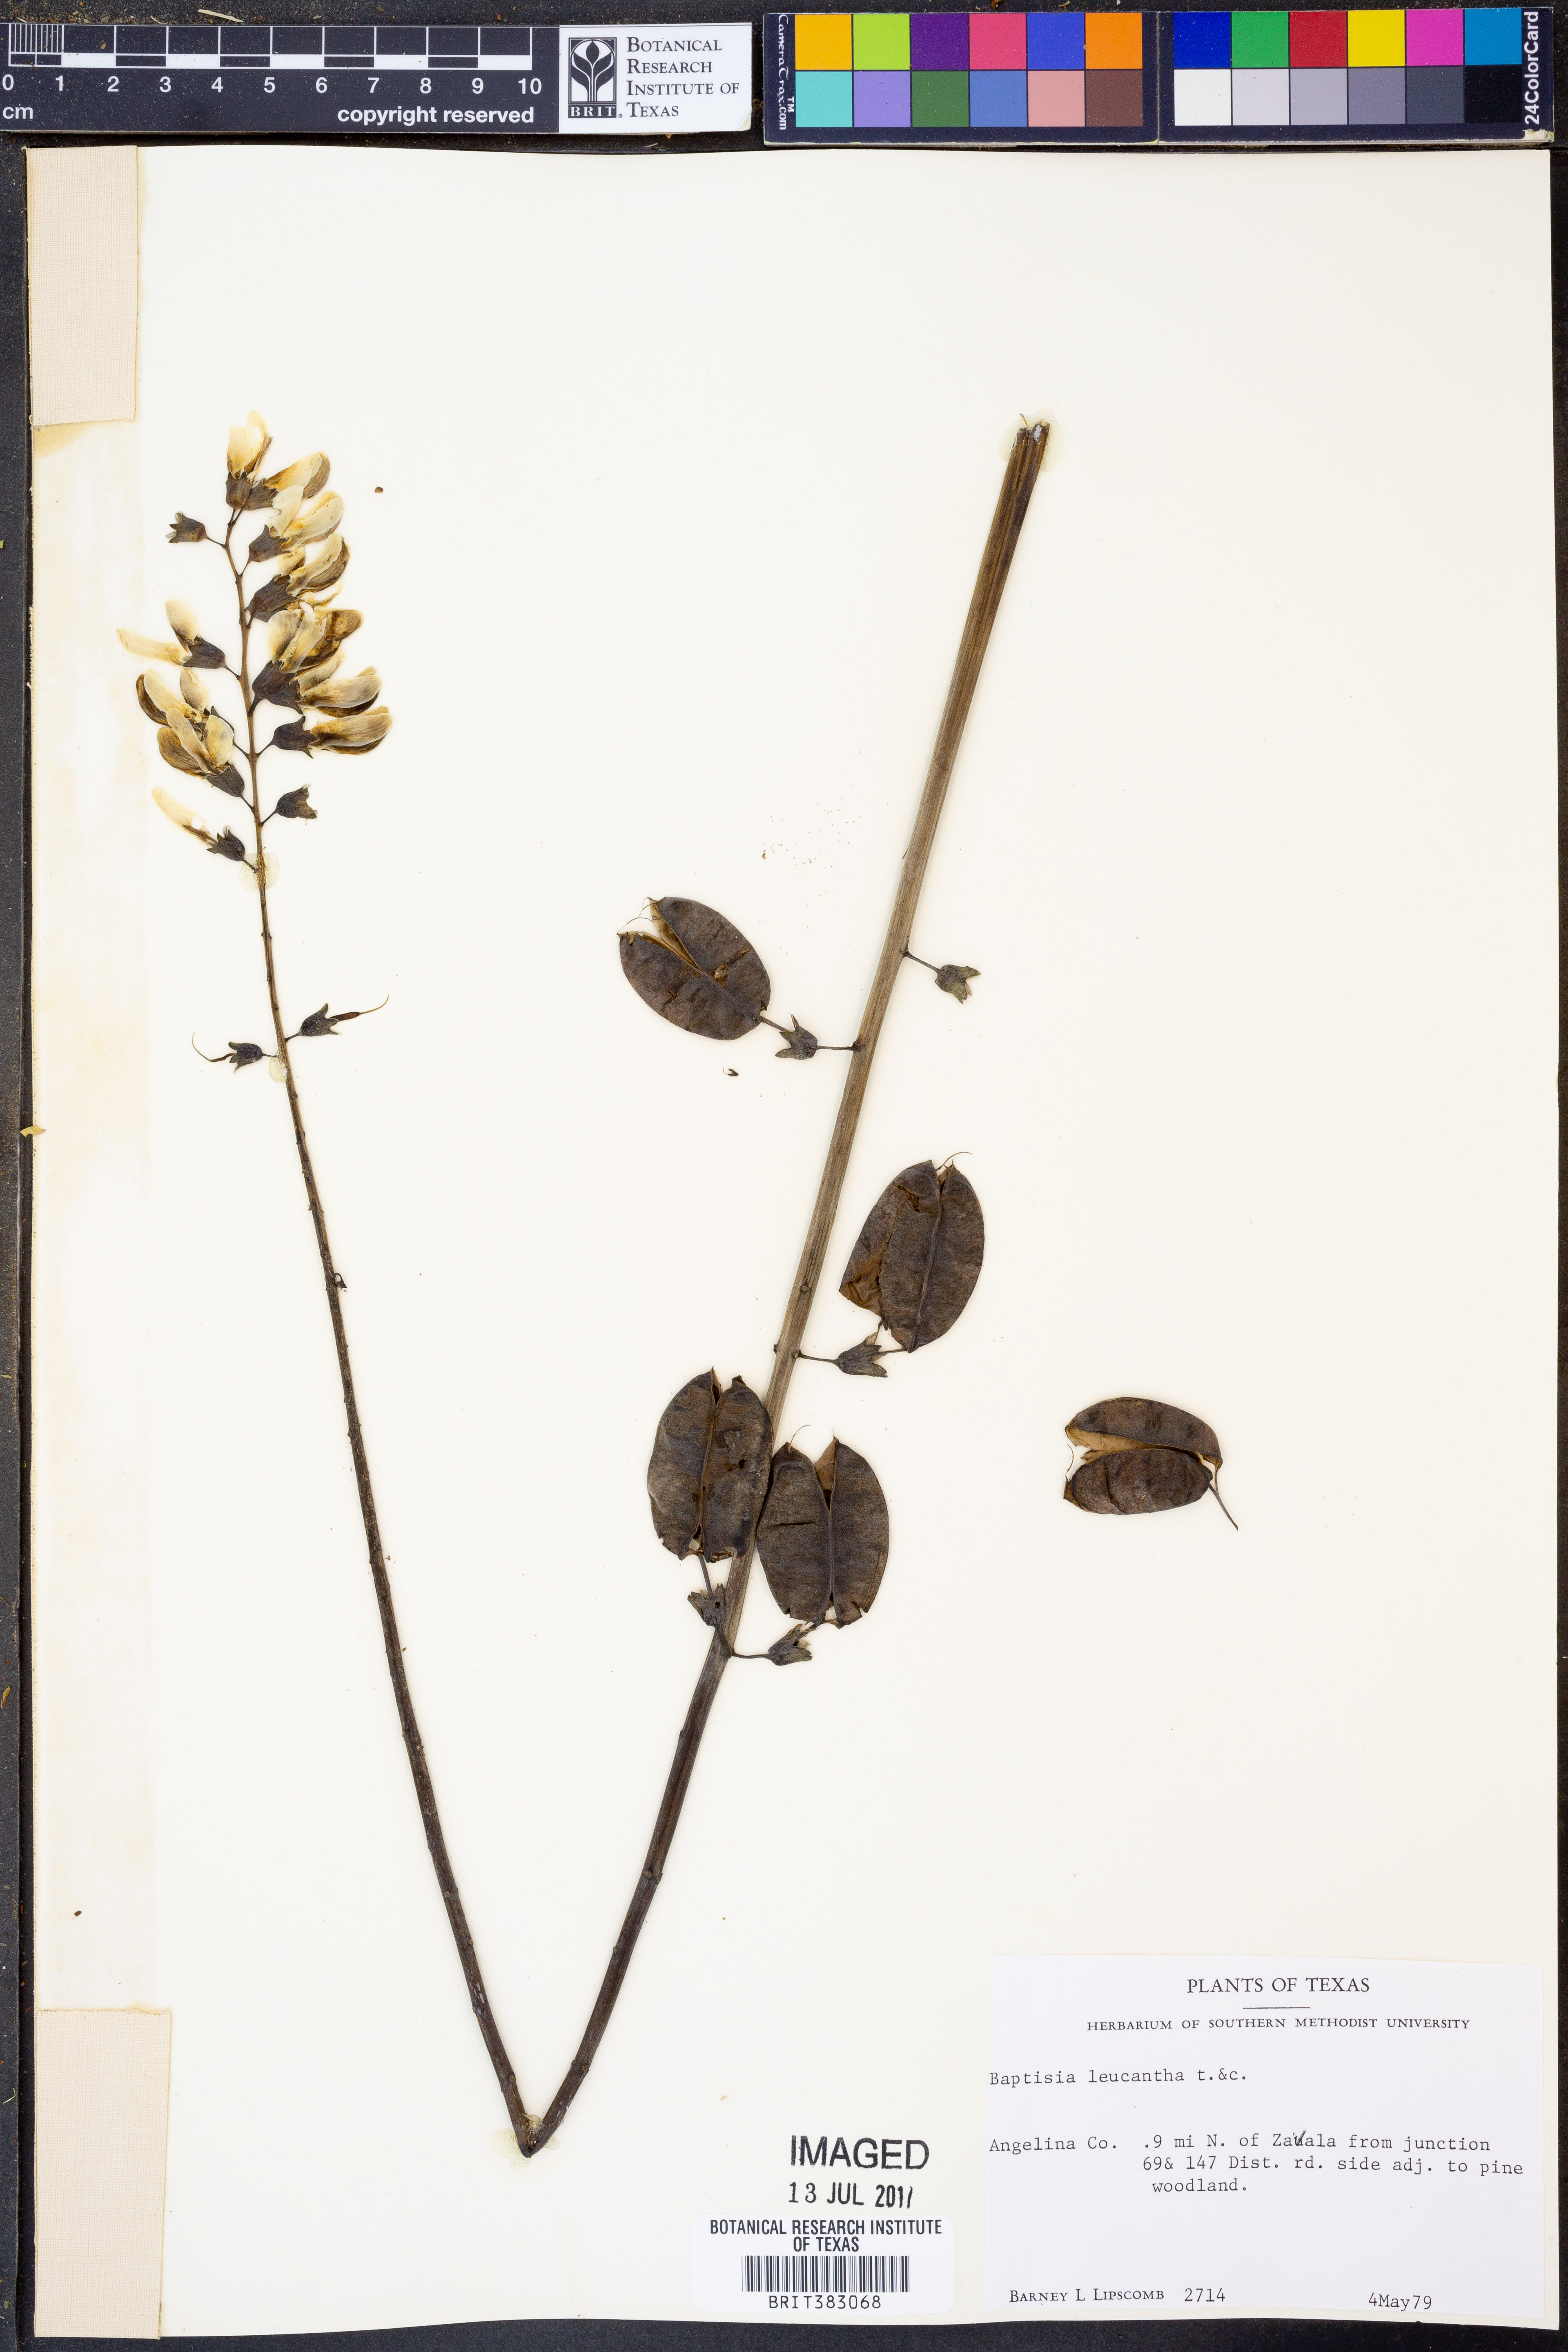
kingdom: Plantae
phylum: Tracheophyta
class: Magnoliopsida
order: Fabales
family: Fabaceae
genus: Baptisia
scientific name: Baptisia alba
